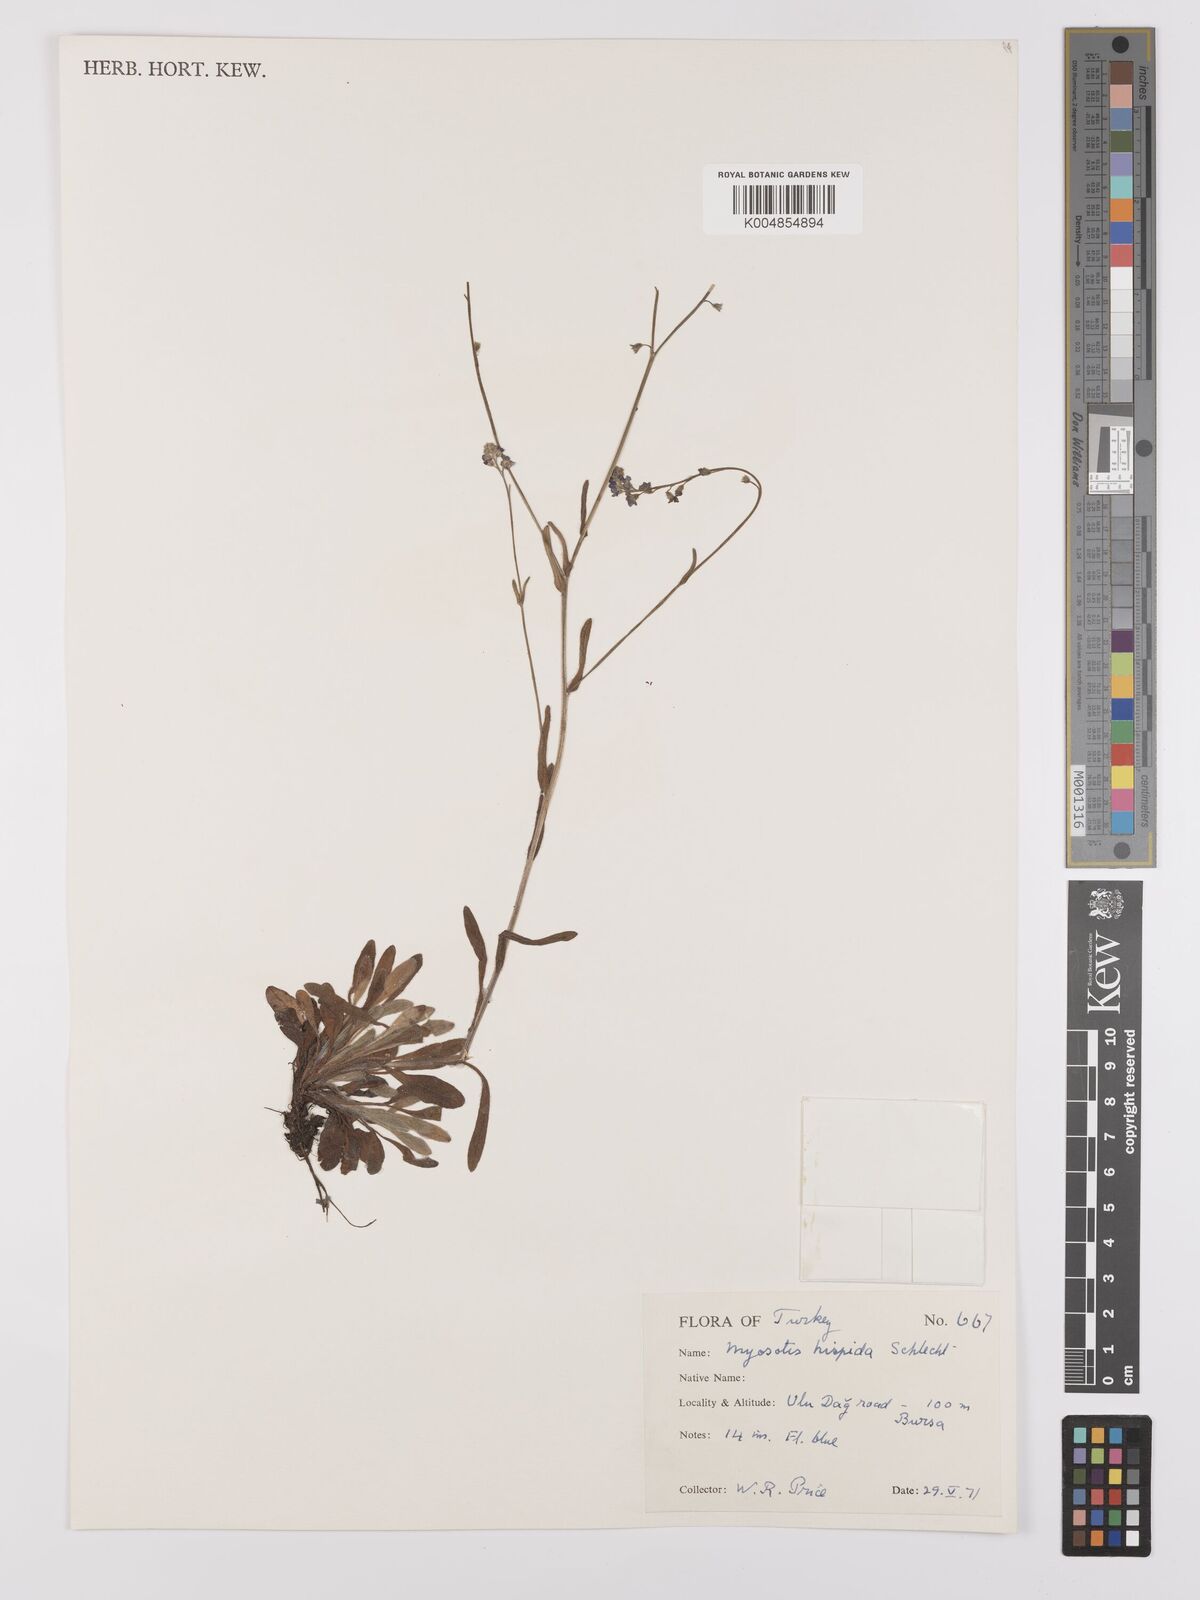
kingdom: Plantae
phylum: Tracheophyta
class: Magnoliopsida
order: Boraginales
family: Boraginaceae
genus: Myosotis
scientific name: Myosotis
